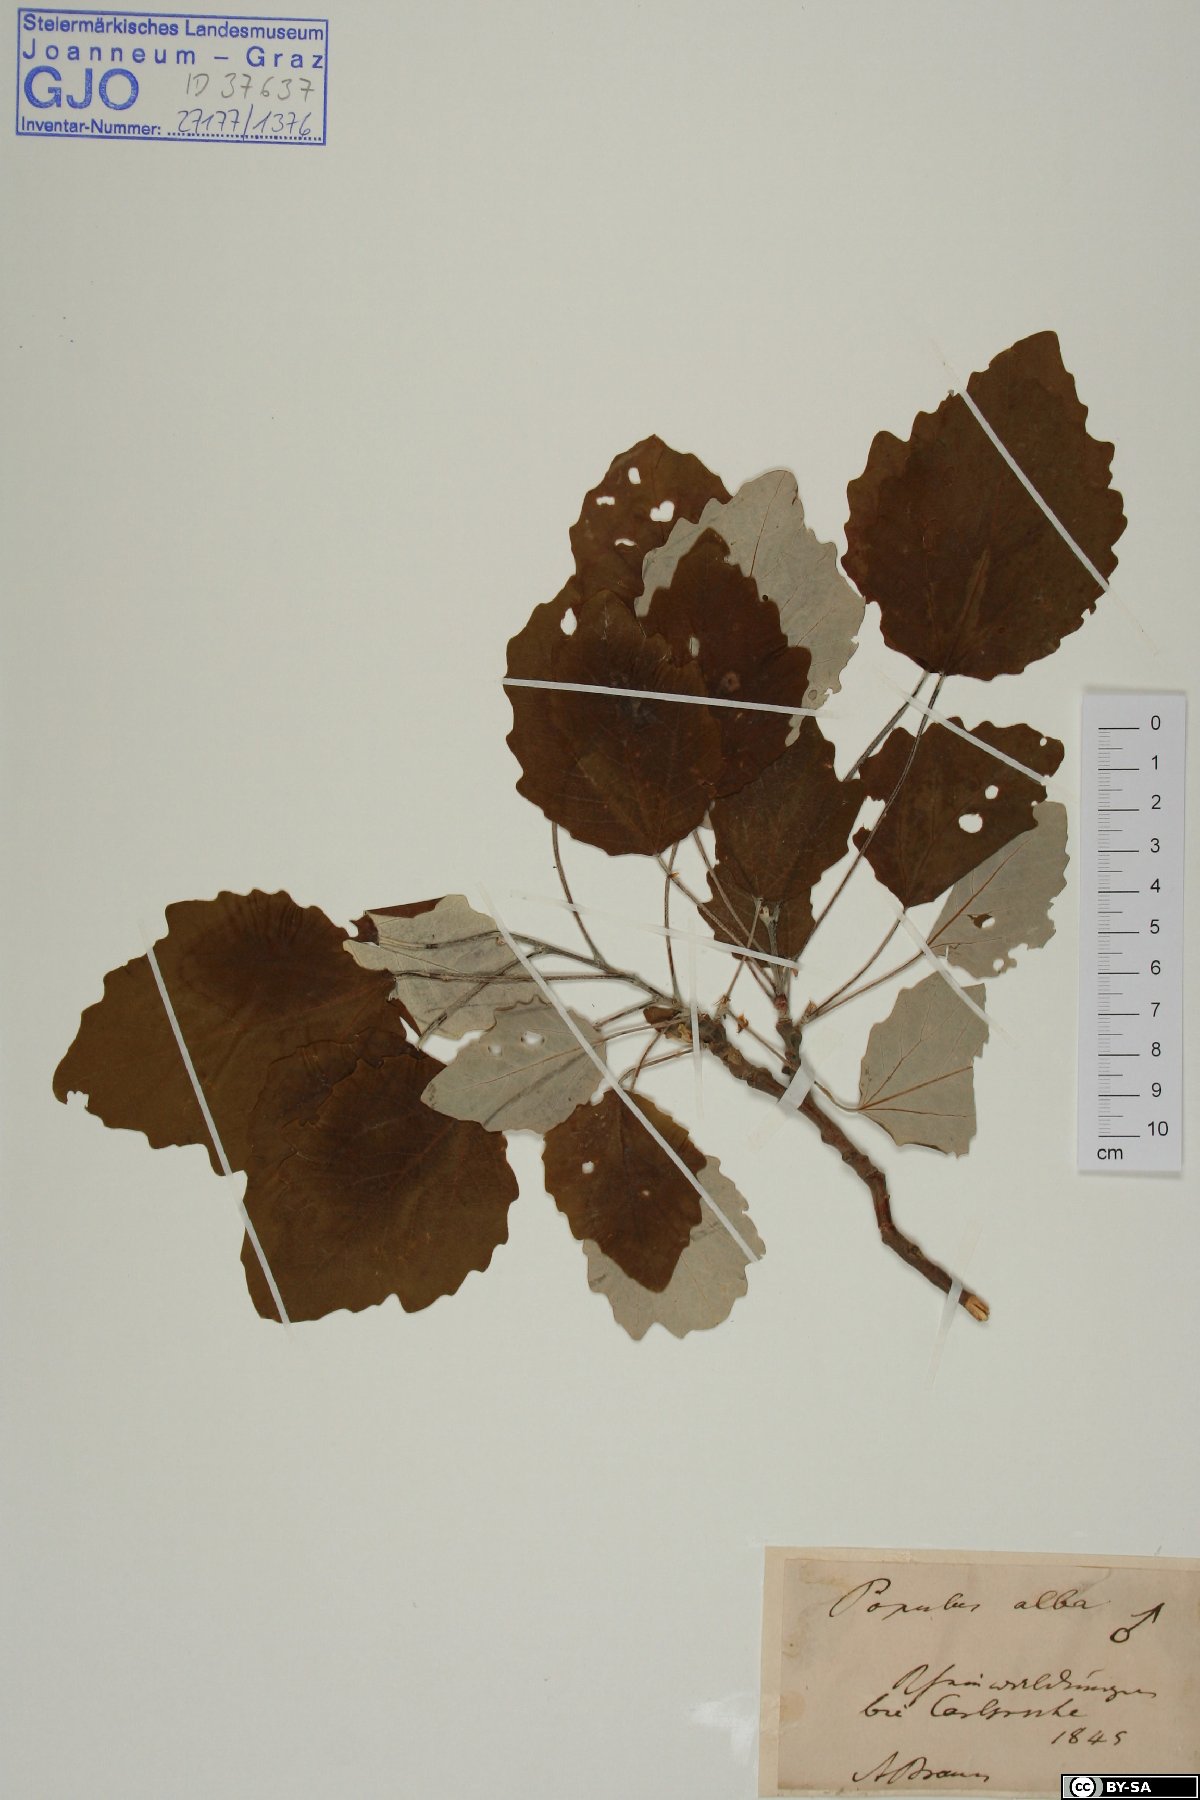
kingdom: Plantae
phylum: Tracheophyta
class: Magnoliopsida
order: Malpighiales
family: Salicaceae
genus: Populus
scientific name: Populus alba
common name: White poplar
